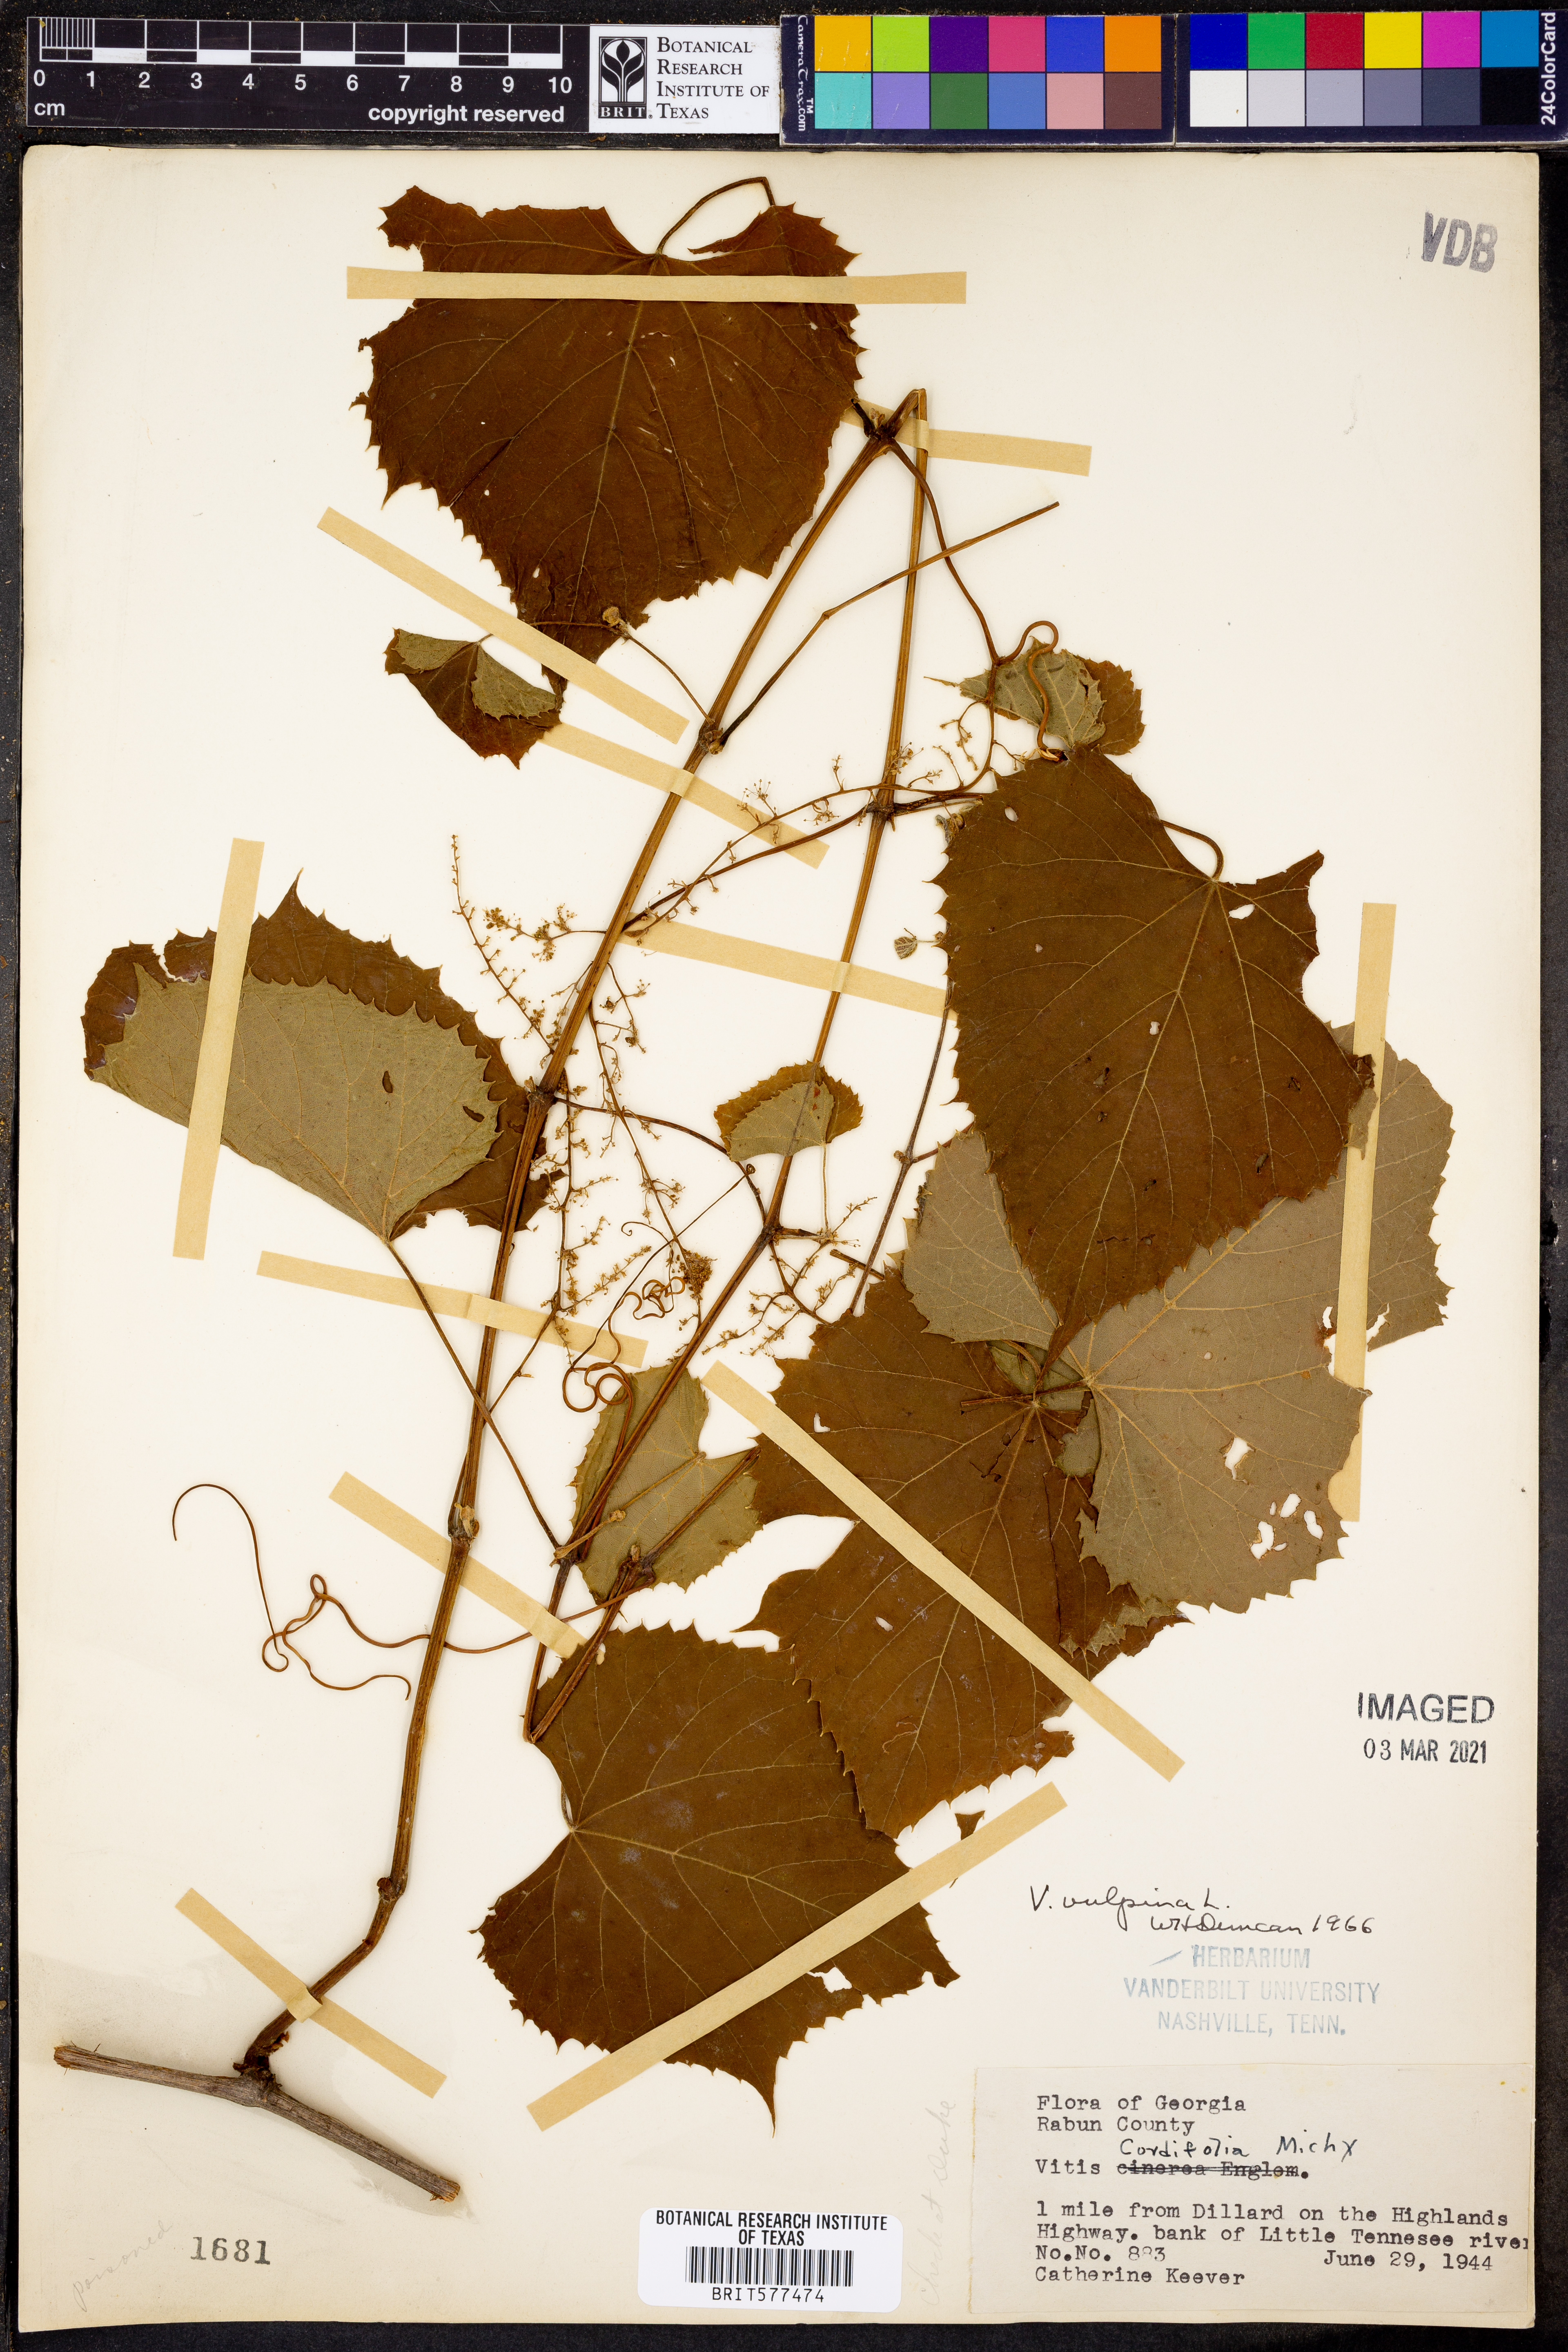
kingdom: Plantae
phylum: Tracheophyta
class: Magnoliopsida
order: Vitales
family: Vitaceae
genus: Vitis
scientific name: Vitis vulpina
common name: Frost grape
